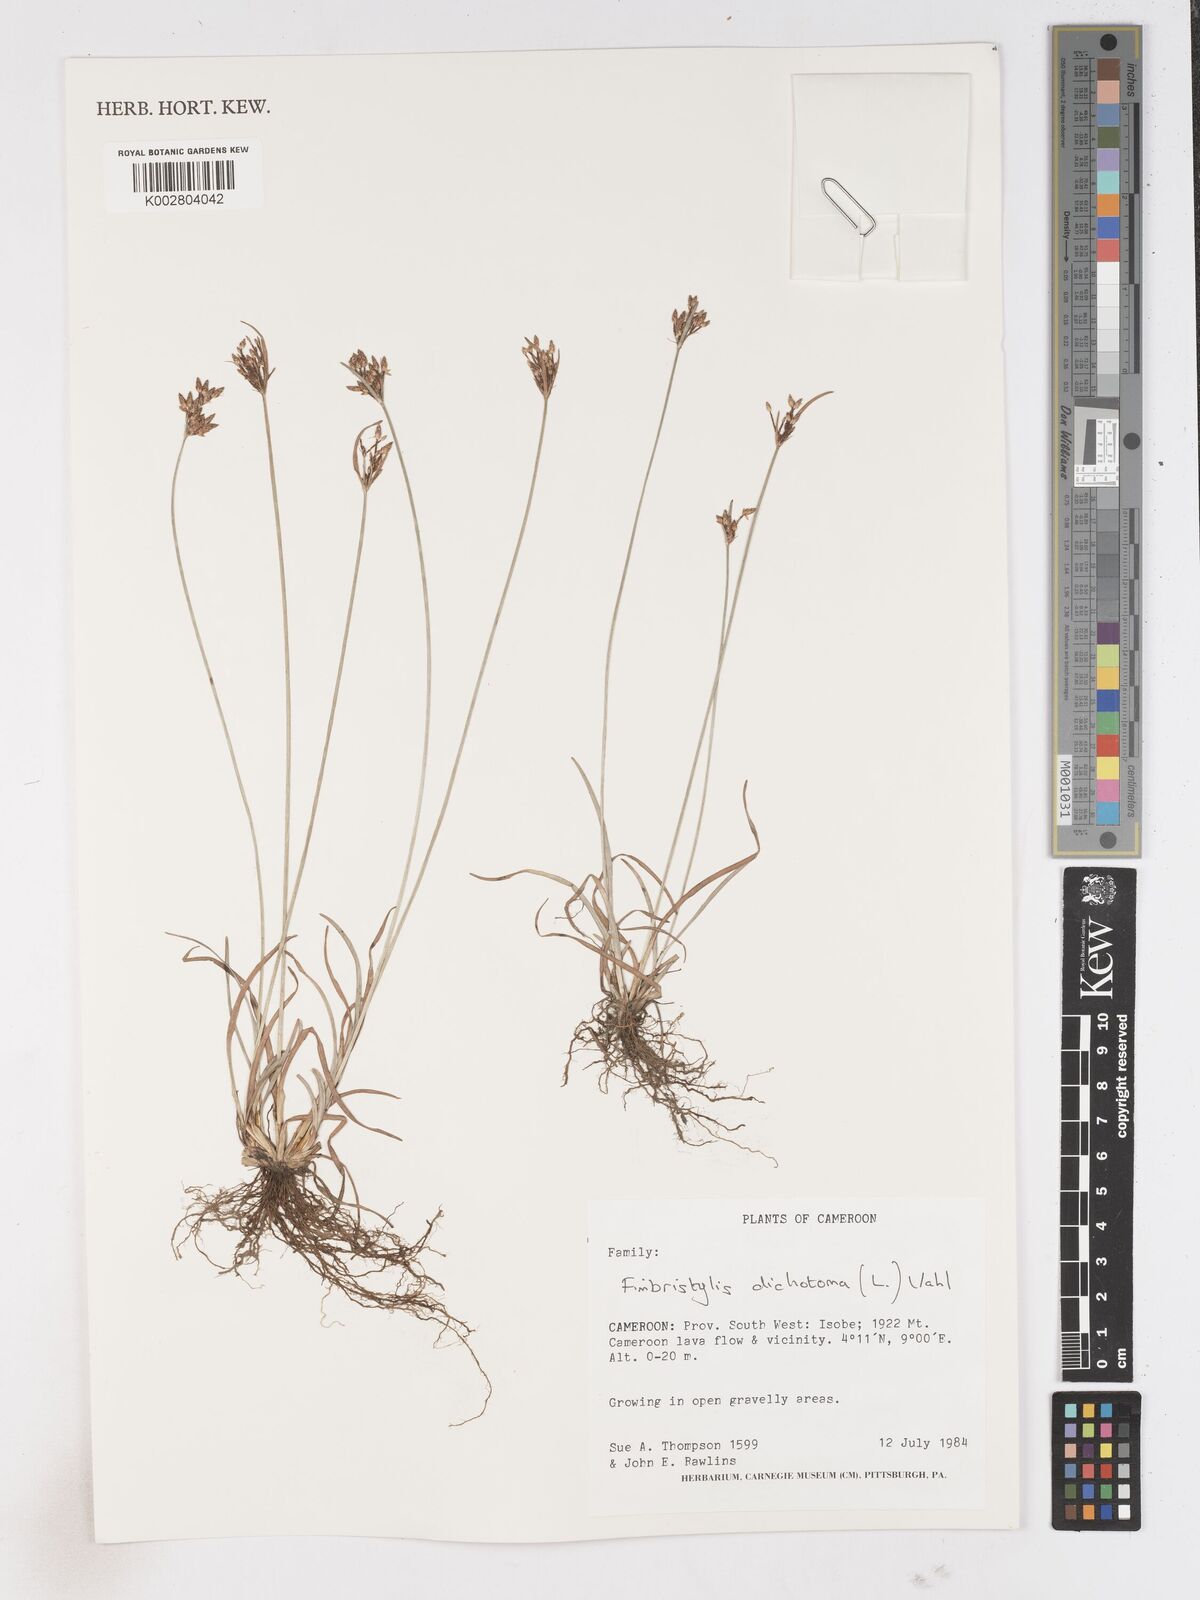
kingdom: Plantae
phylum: Tracheophyta
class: Liliopsida
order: Poales
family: Cyperaceae
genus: Fimbristylis
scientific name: Fimbristylis dichotoma
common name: Forked fimbry
